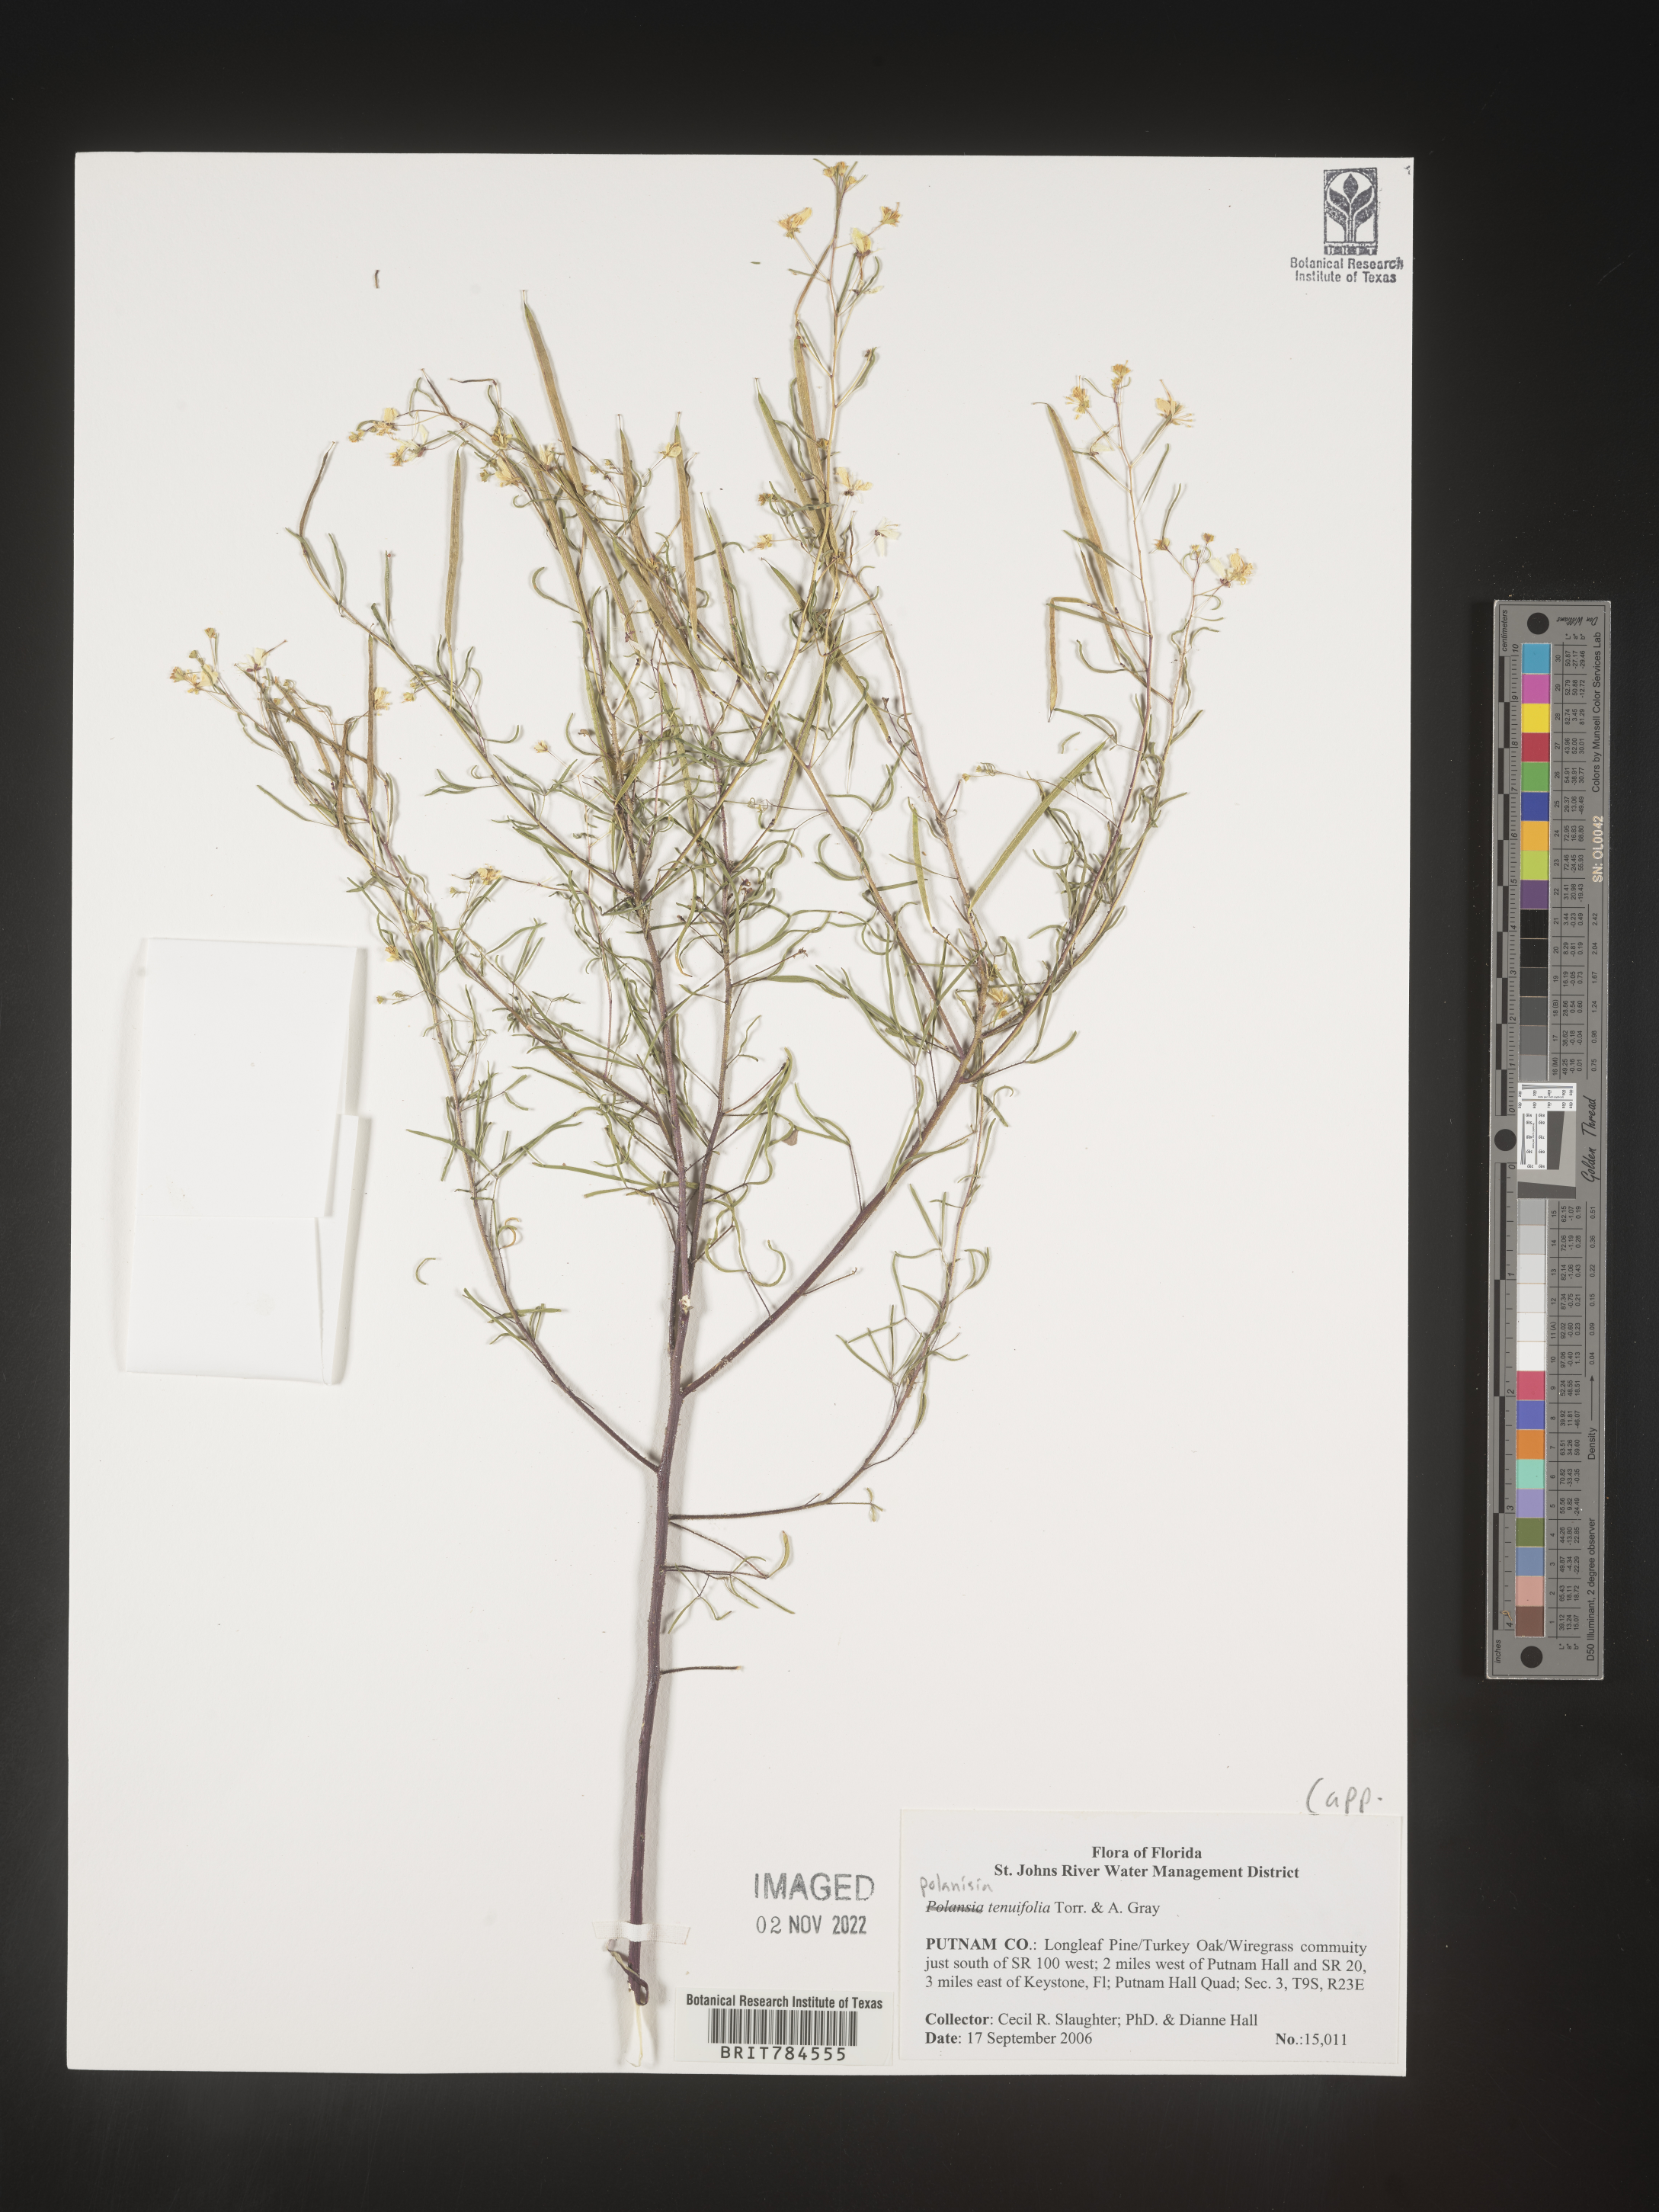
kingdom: Plantae
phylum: Tracheophyta
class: Magnoliopsida
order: Brassicales
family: Cleomaceae
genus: Polanisia
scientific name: Polanisia
